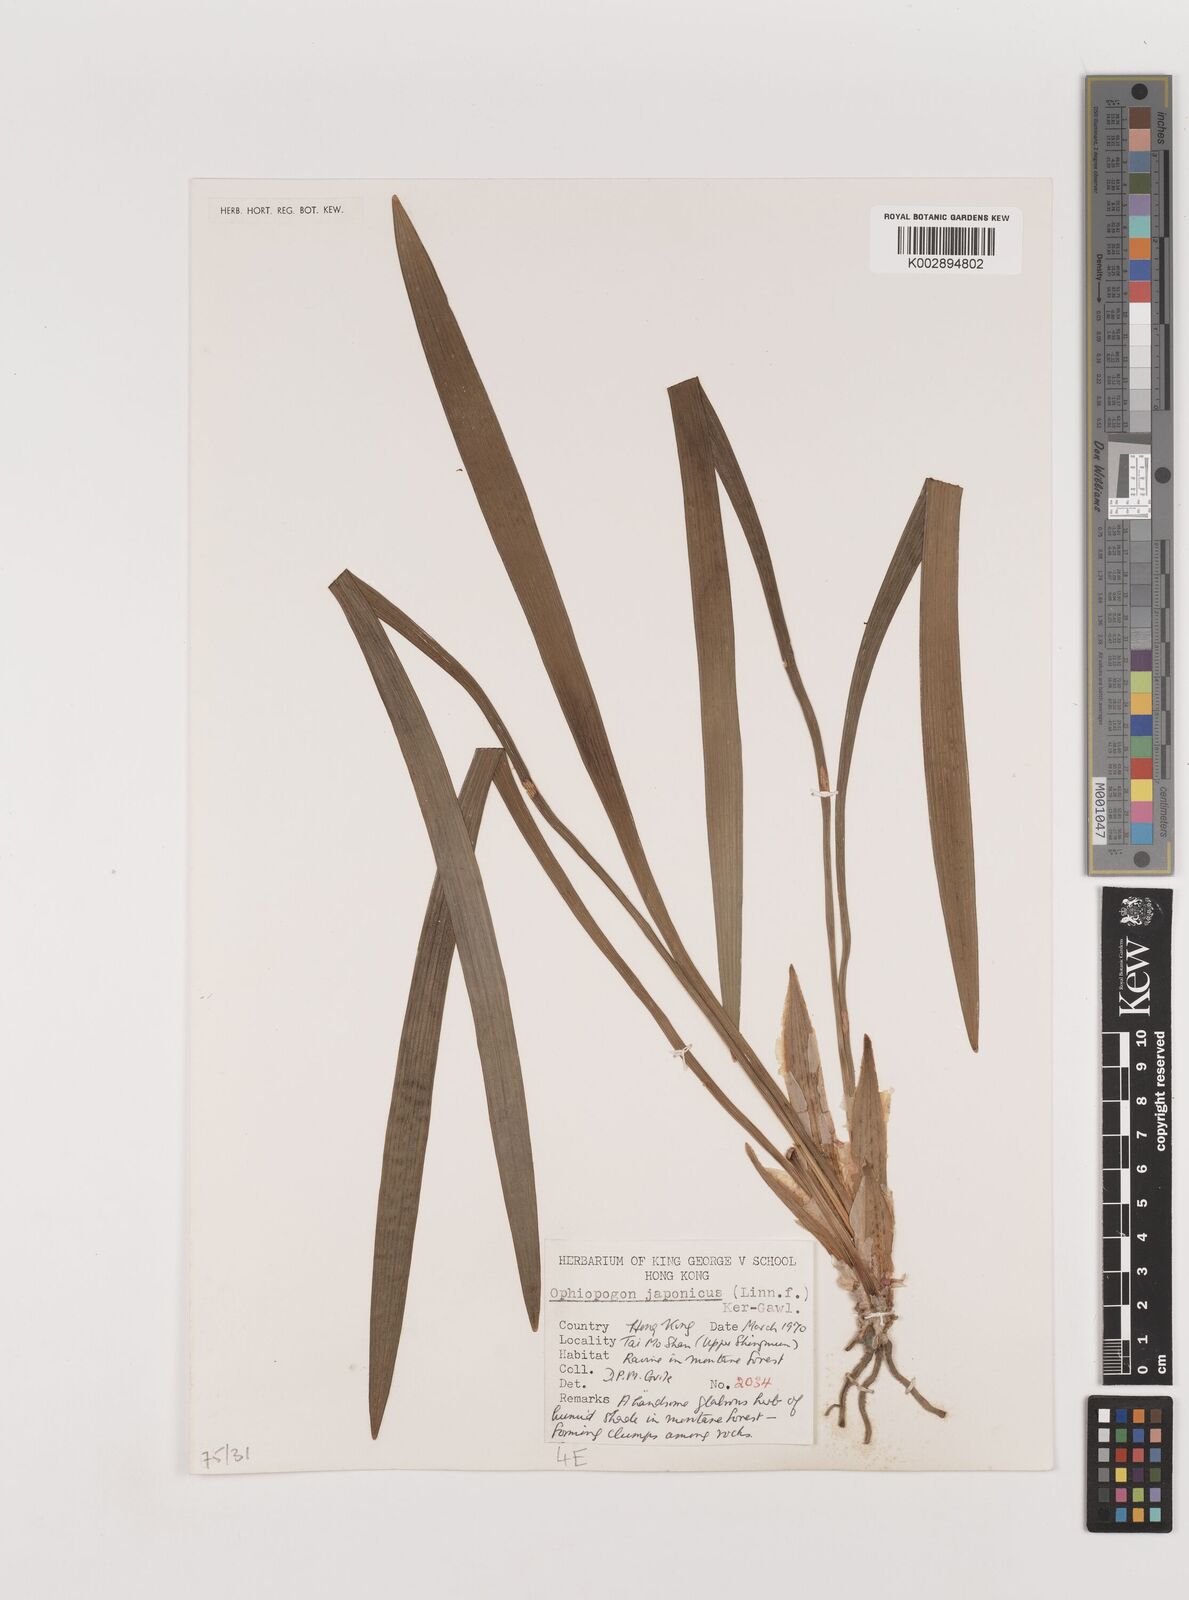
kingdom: Plantae
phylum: Tracheophyta
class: Liliopsida
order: Asparagales
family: Asparagaceae
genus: Ophiopogon
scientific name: Ophiopogon japonicus
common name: Dwarf lilyturf
